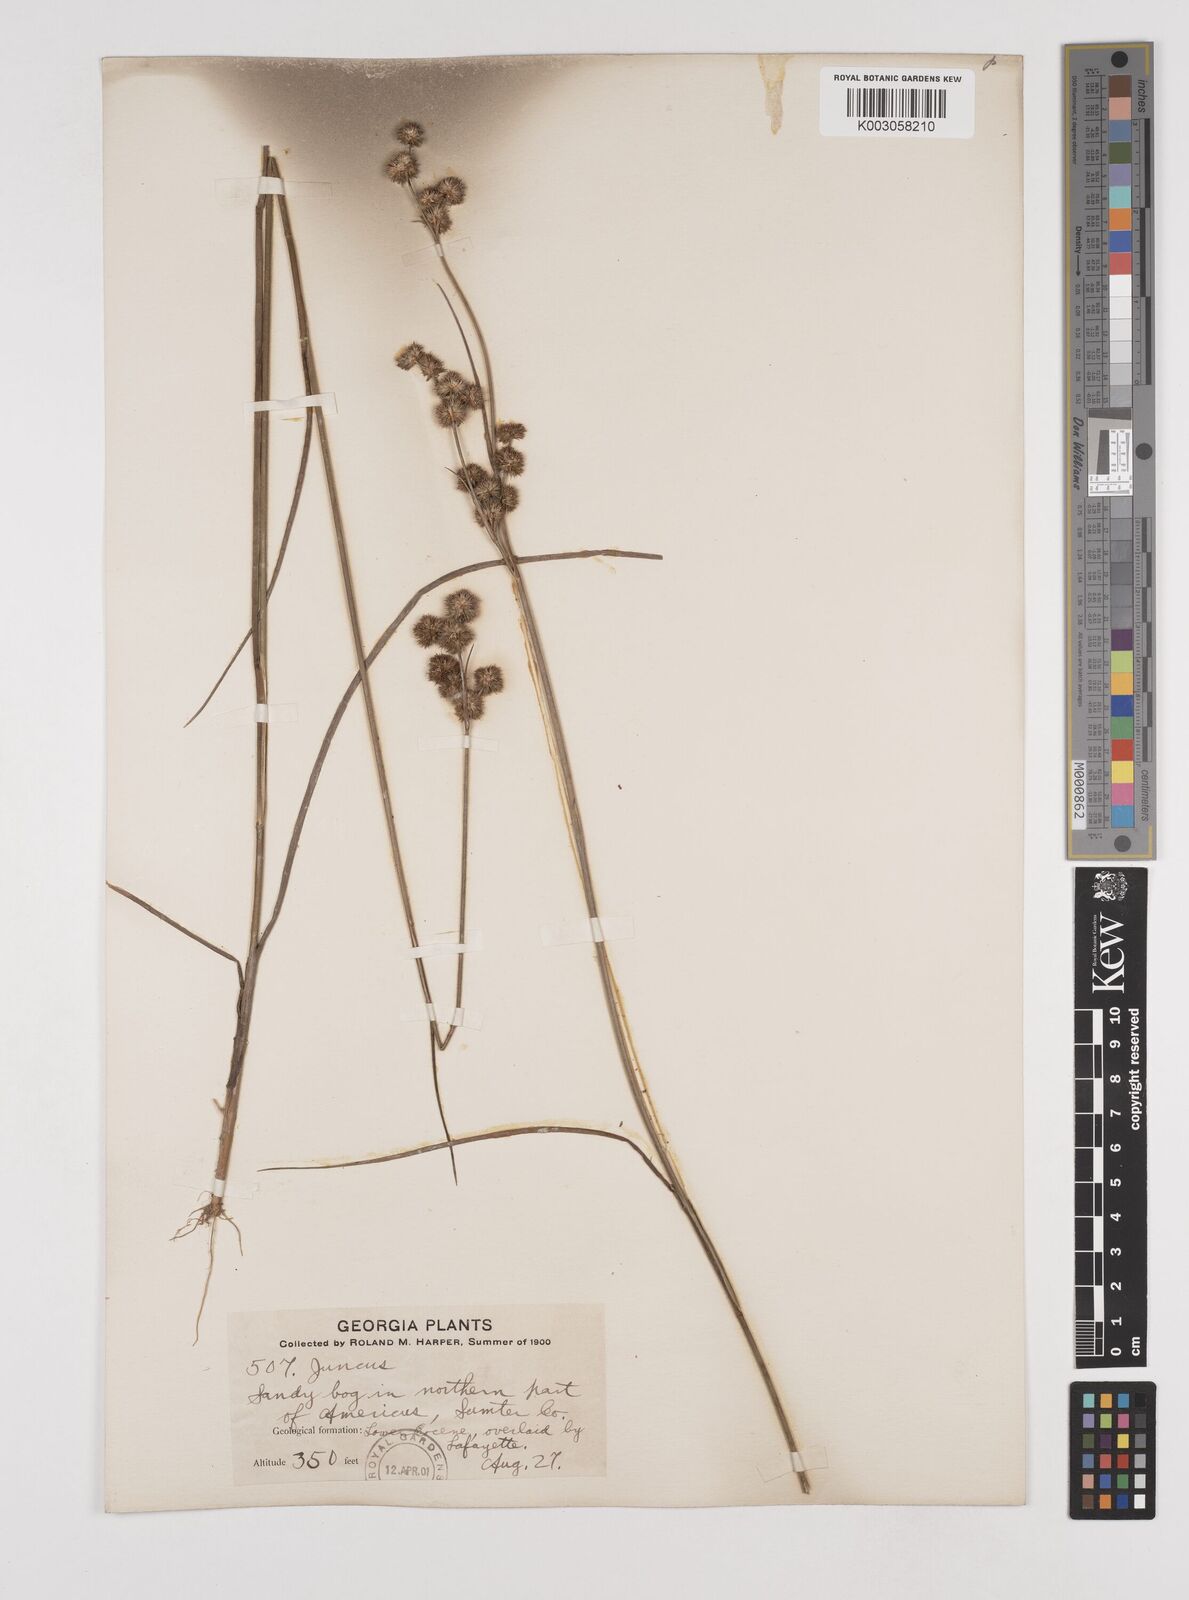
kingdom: Plantae
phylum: Tracheophyta
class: Liliopsida
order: Poales
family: Juncaceae
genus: Juncus
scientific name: Juncus
